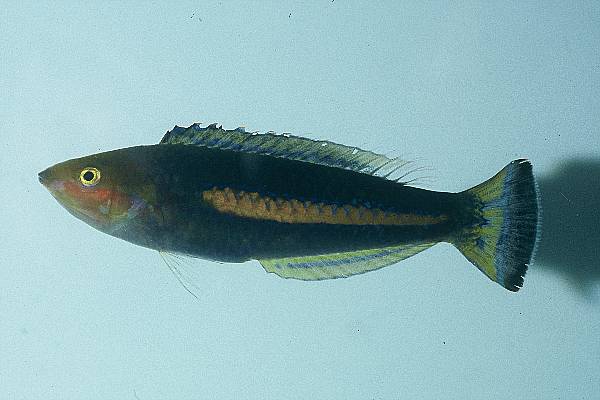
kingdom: Animalia
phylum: Chordata
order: Perciformes
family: Labridae
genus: Pseudojuloides
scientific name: Pseudojuloides cerasinus
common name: Smalltail wrasse
